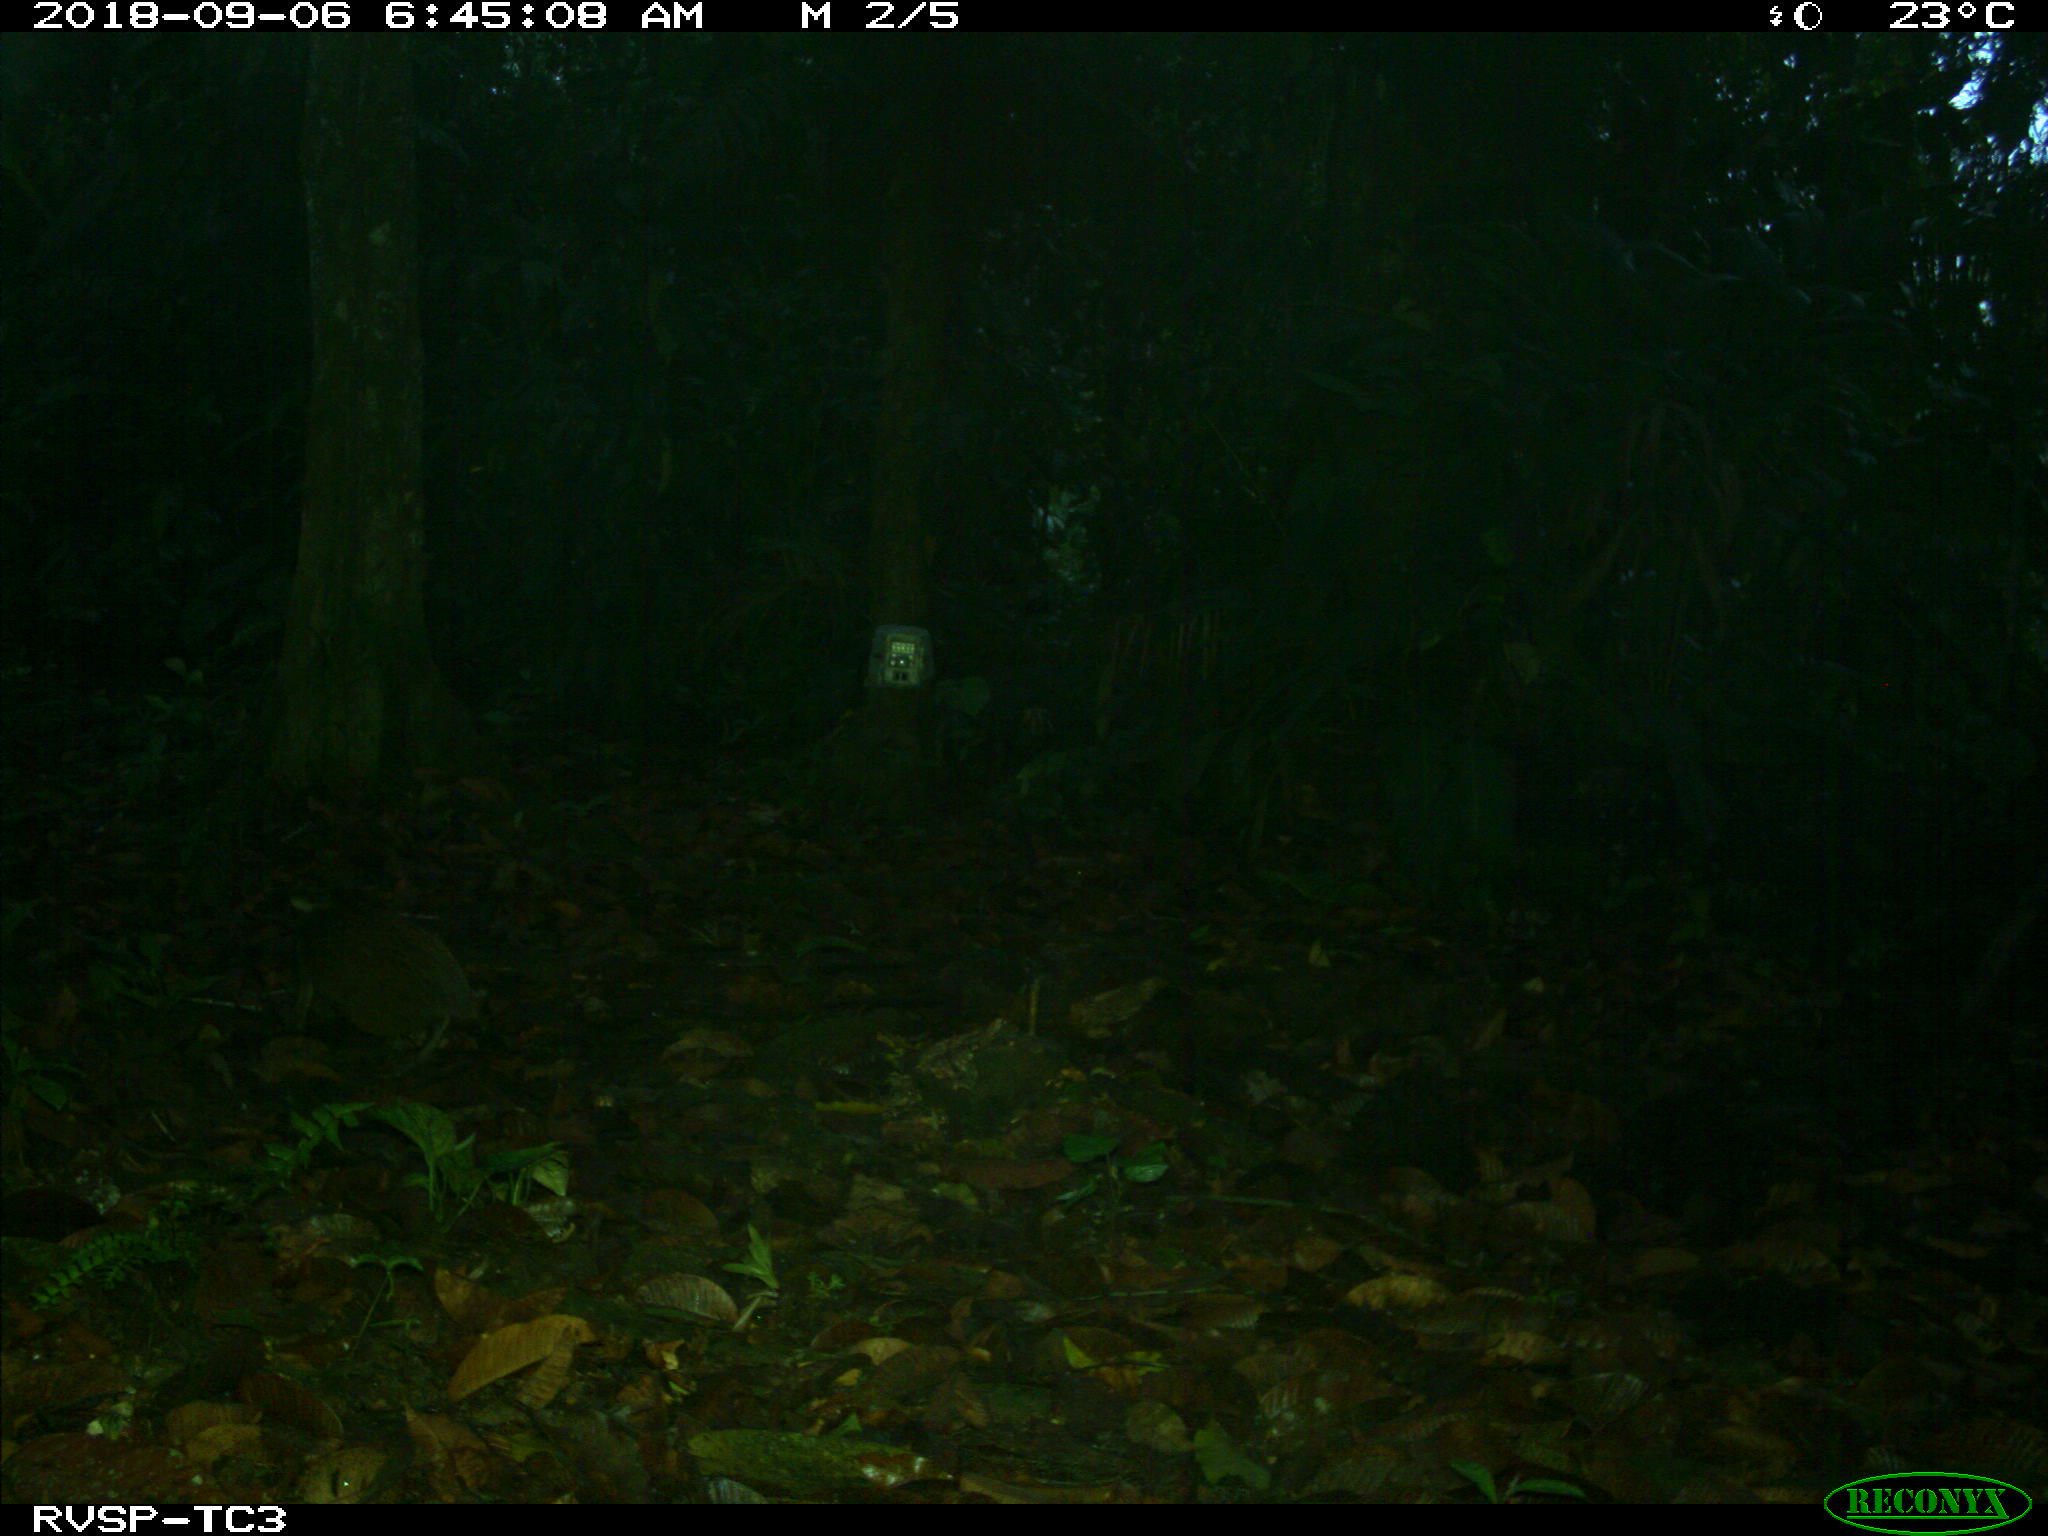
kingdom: Animalia
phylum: Chordata
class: Mammalia
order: Rodentia
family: Dasyproctidae
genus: Dasyprocta
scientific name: Dasyprocta punctata
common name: Central american agouti
